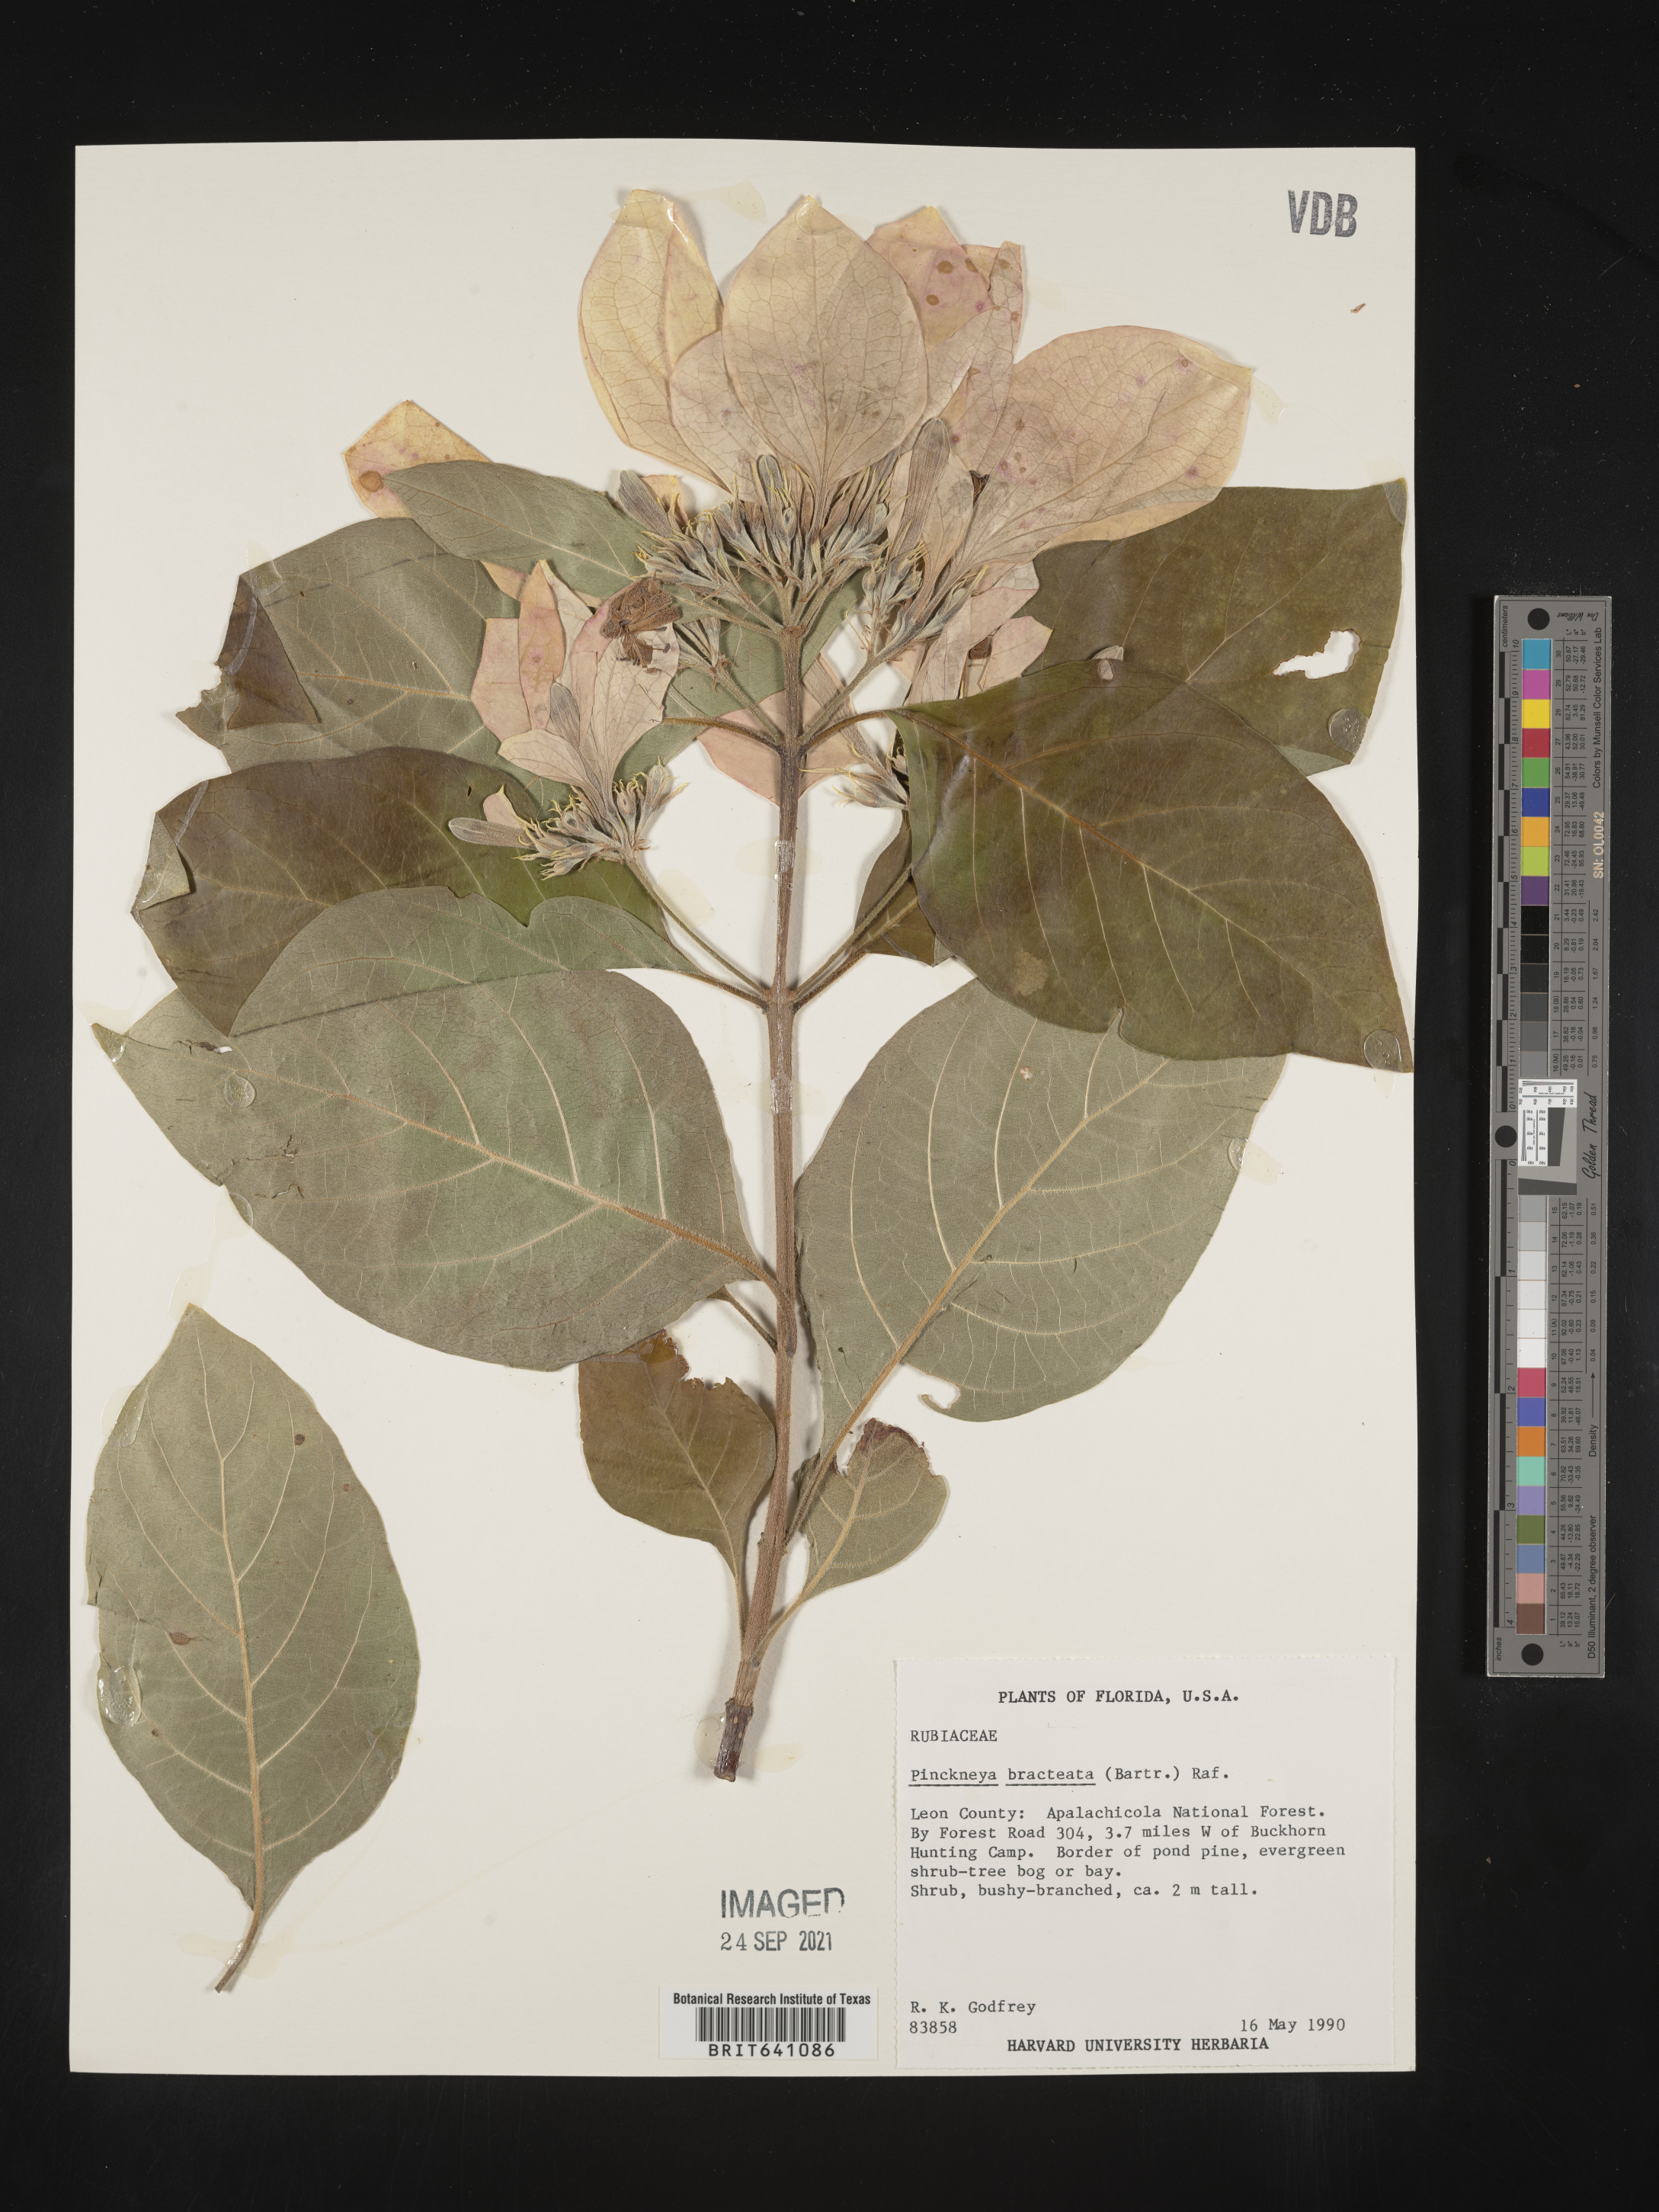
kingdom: Plantae
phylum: Tracheophyta
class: Magnoliopsida
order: Gentianales
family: Rubiaceae
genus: Pinckneya
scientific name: Pinckneya pubens
